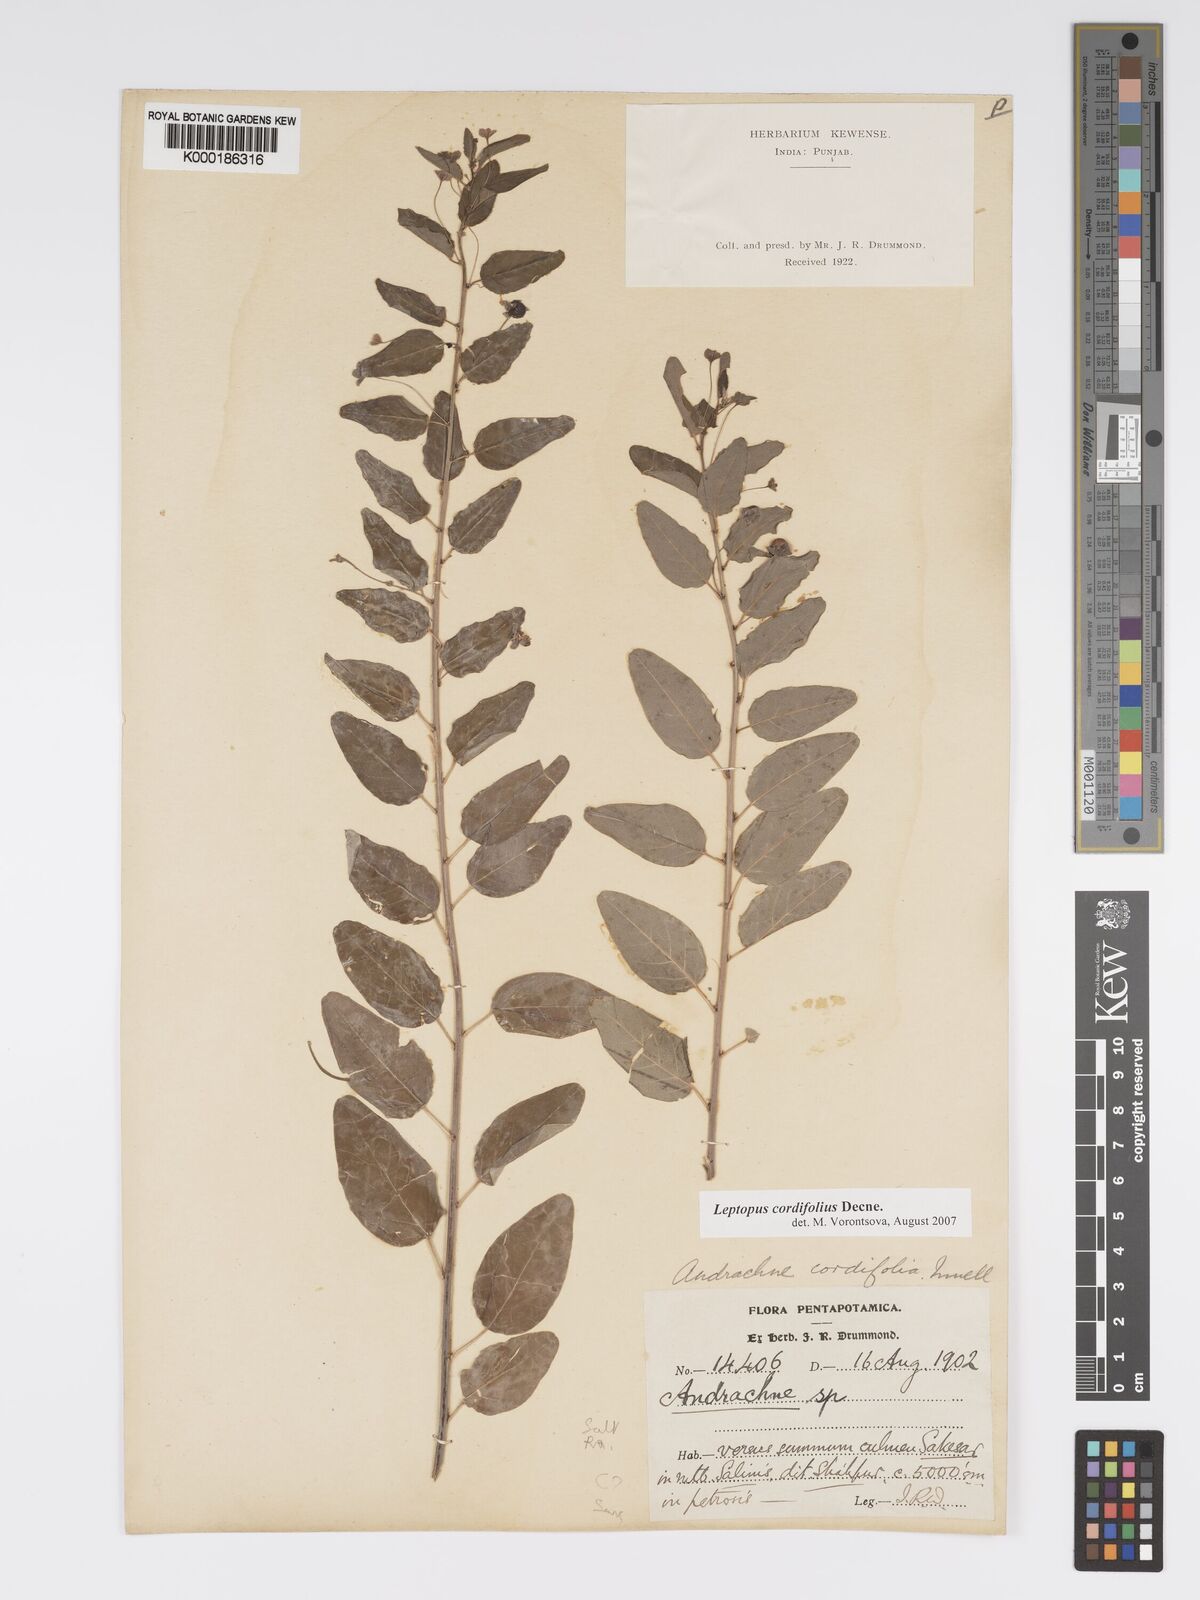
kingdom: Plantae
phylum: Tracheophyta
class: Magnoliopsida
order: Malpighiales
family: Phyllanthaceae
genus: Leptopus
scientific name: Leptopus cordifolius
